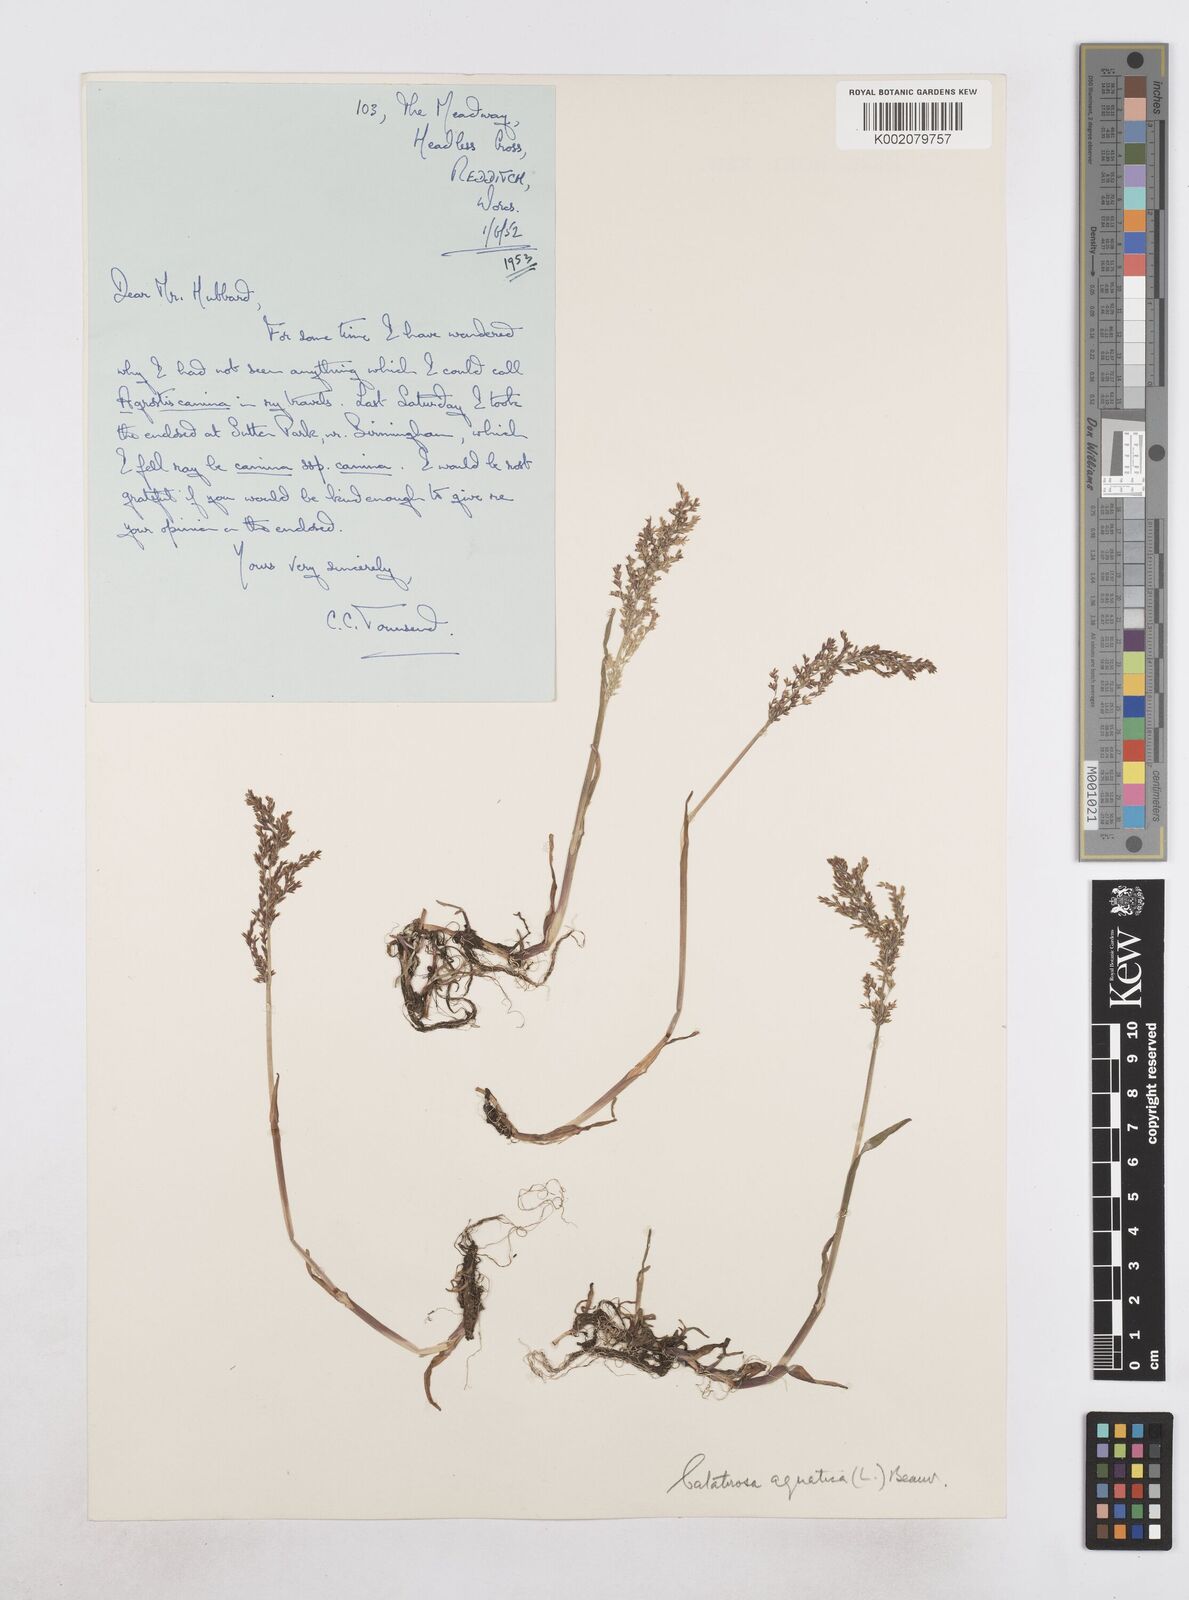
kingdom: Plantae
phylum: Tracheophyta
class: Liliopsida
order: Poales
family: Poaceae
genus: Catabrosa
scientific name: Catabrosa aquatica
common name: Whorl-grass
